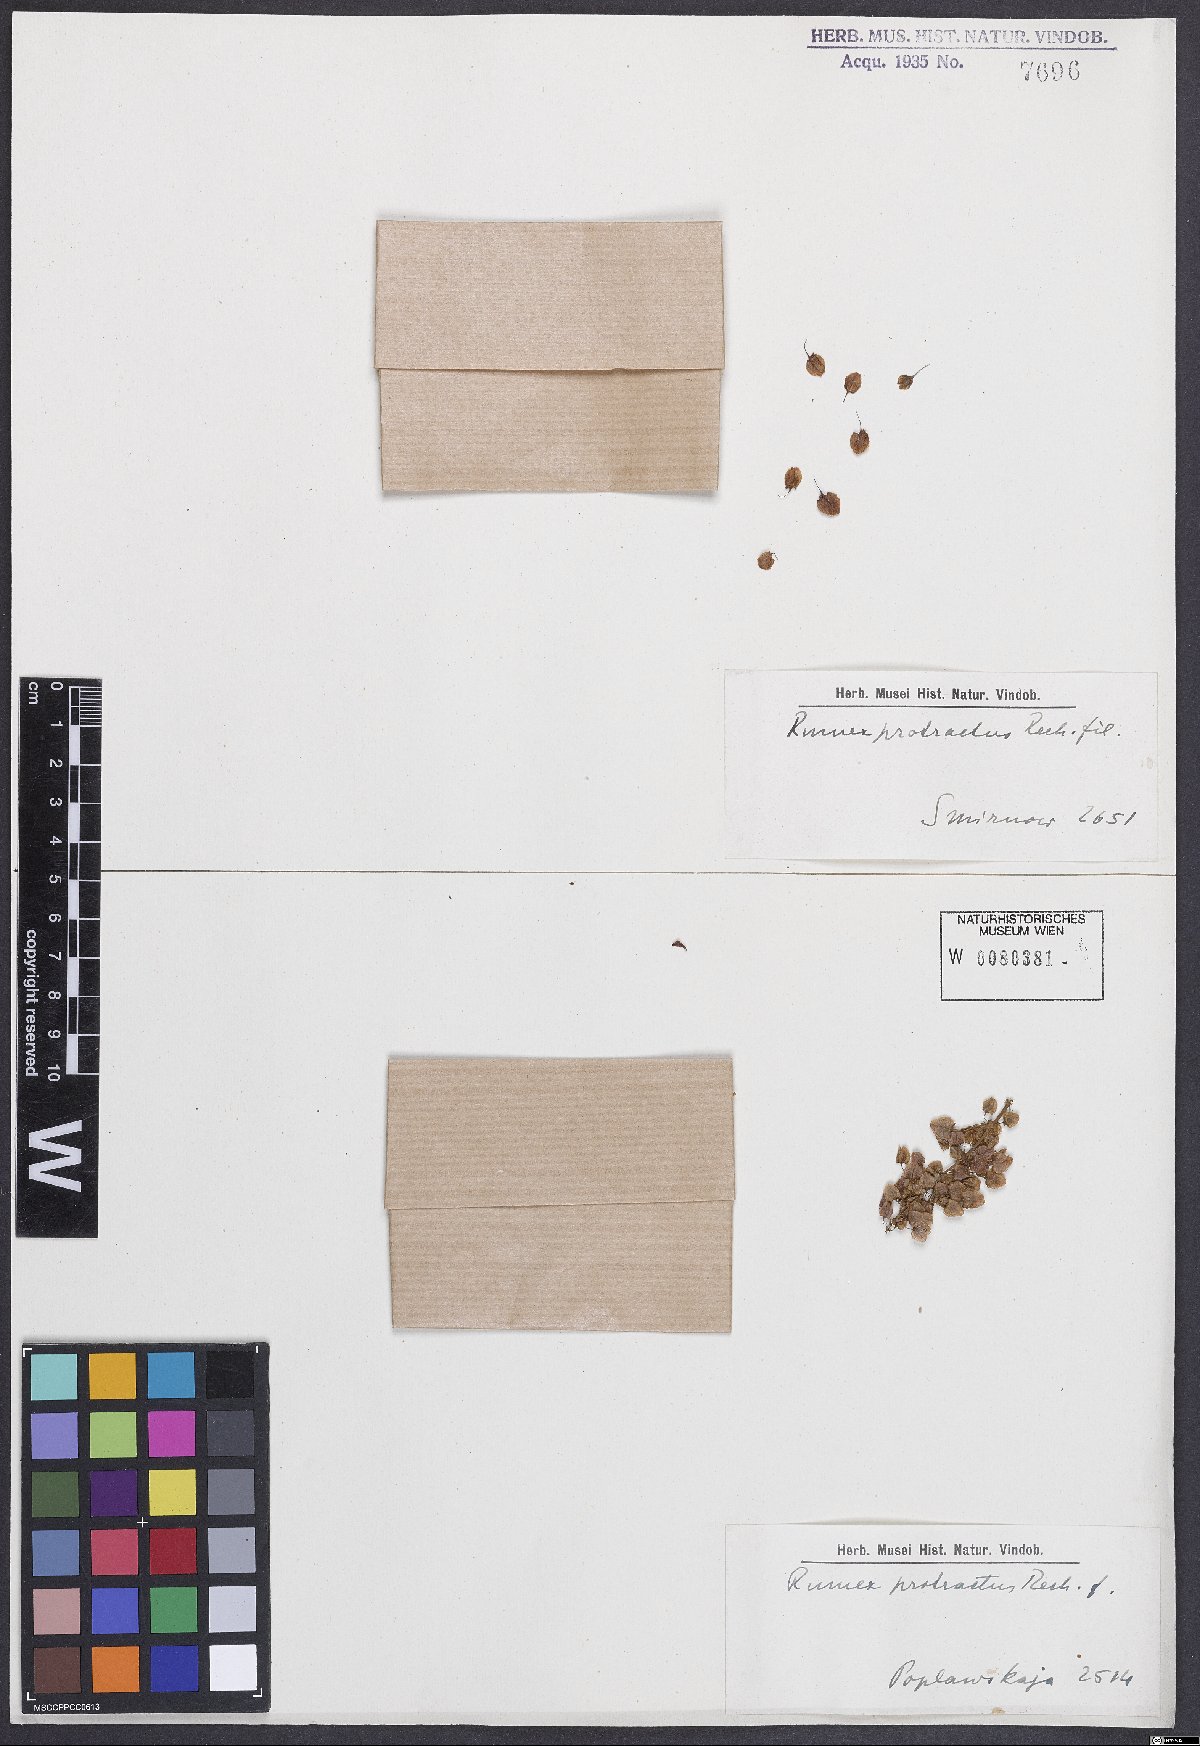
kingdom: Plantae
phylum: Tracheophyta
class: Magnoliopsida
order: Caryophyllales
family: Polygonaceae
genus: Rumex
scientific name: Rumex aquaticus
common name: Scottish dock
